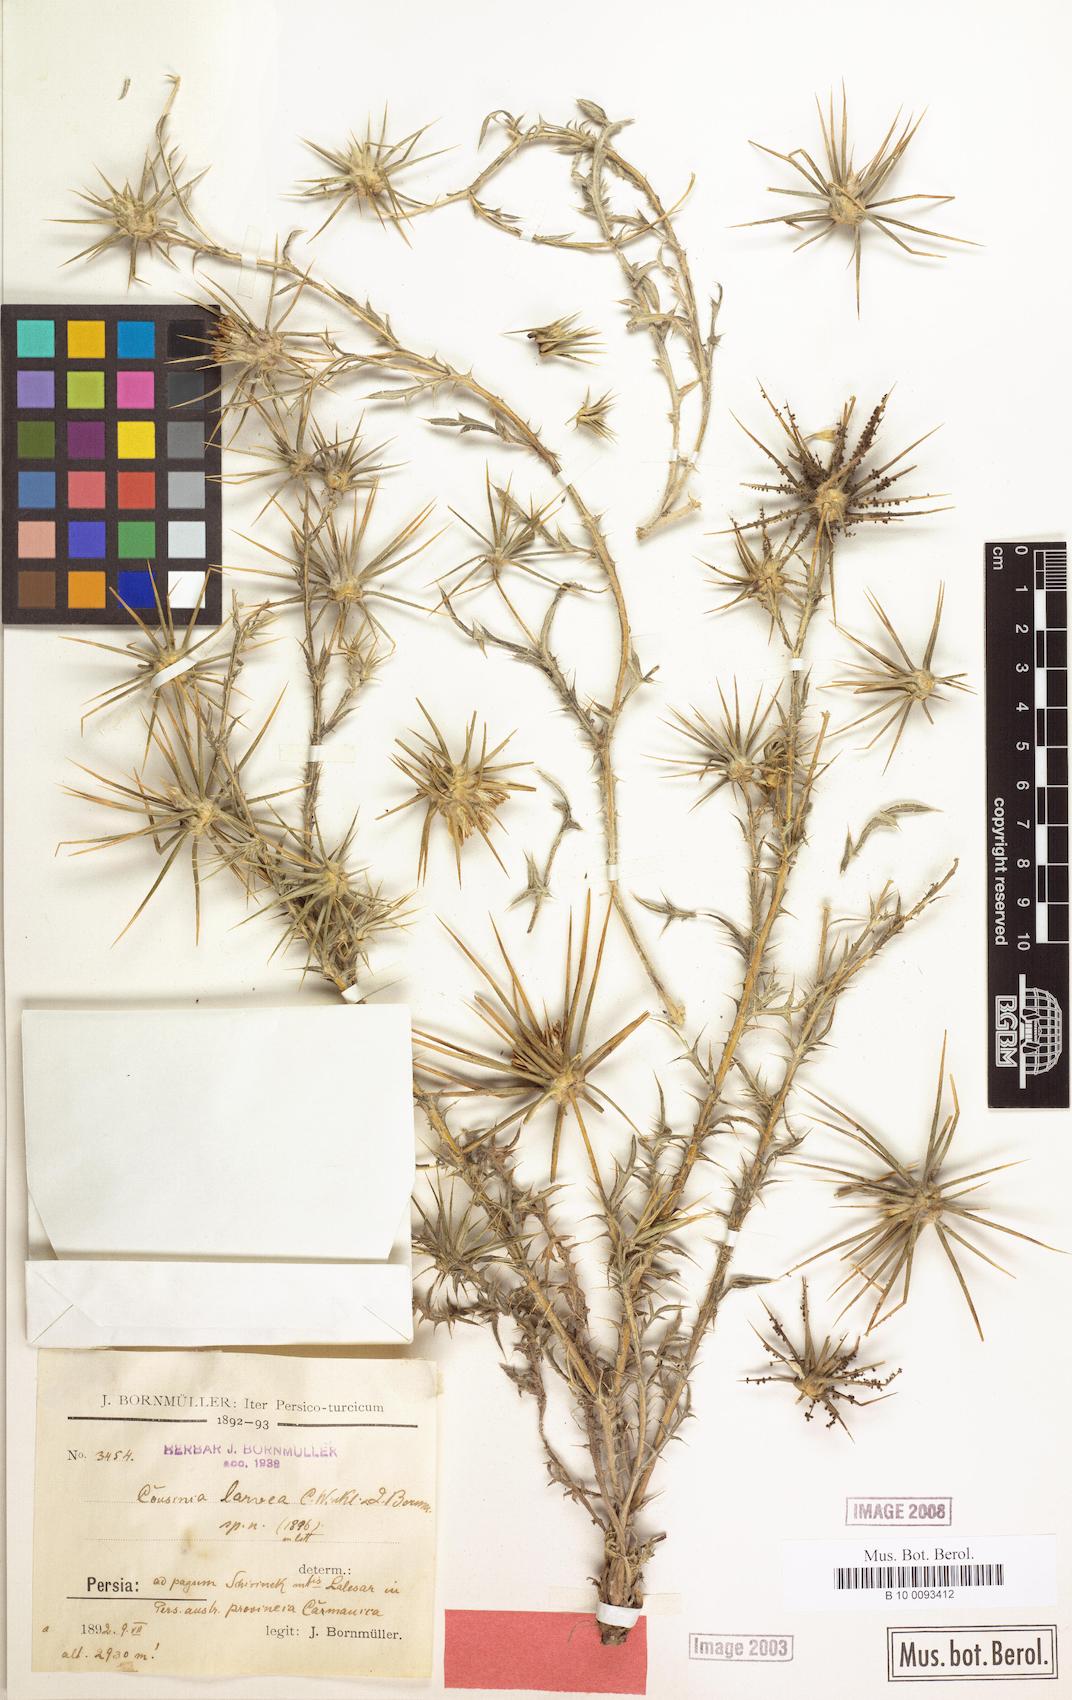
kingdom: Plantae
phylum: Tracheophyta
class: Magnoliopsida
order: Asterales
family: Asteraceae
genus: Cousinia
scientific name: Cousinia calcitrapa
